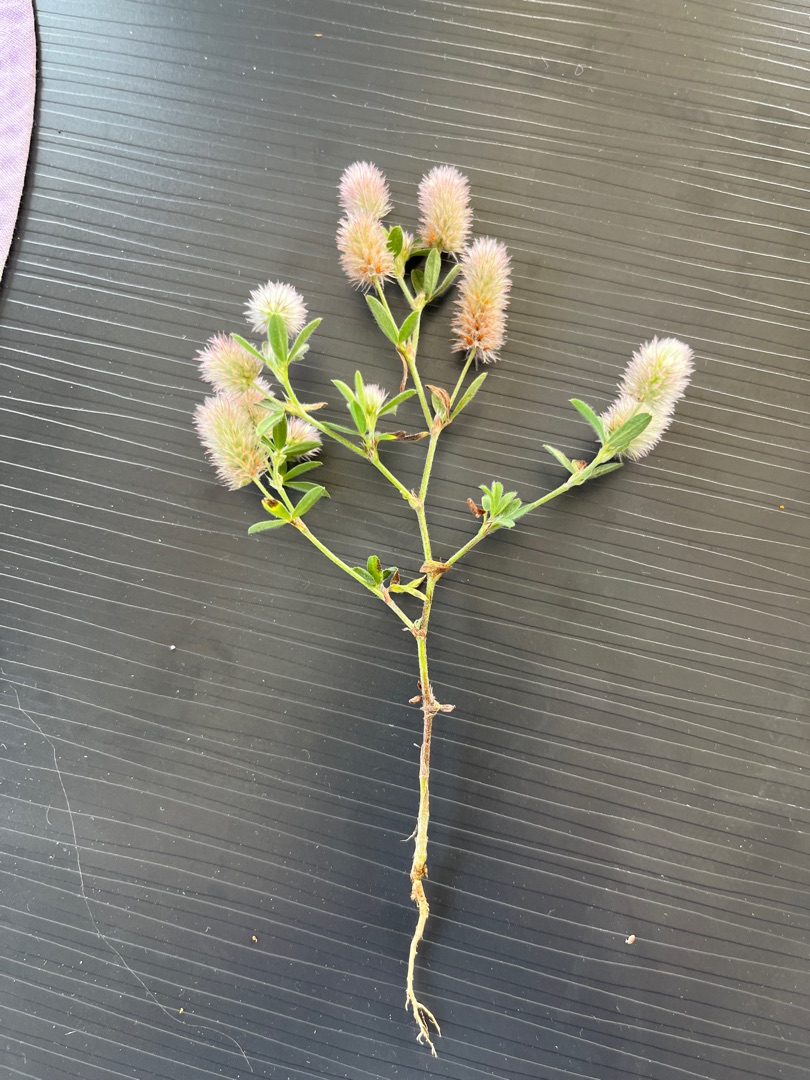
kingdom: Plantae
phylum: Tracheophyta
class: Magnoliopsida
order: Fabales
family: Fabaceae
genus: Trifolium
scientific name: Trifolium arvense
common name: Hare-kløver
